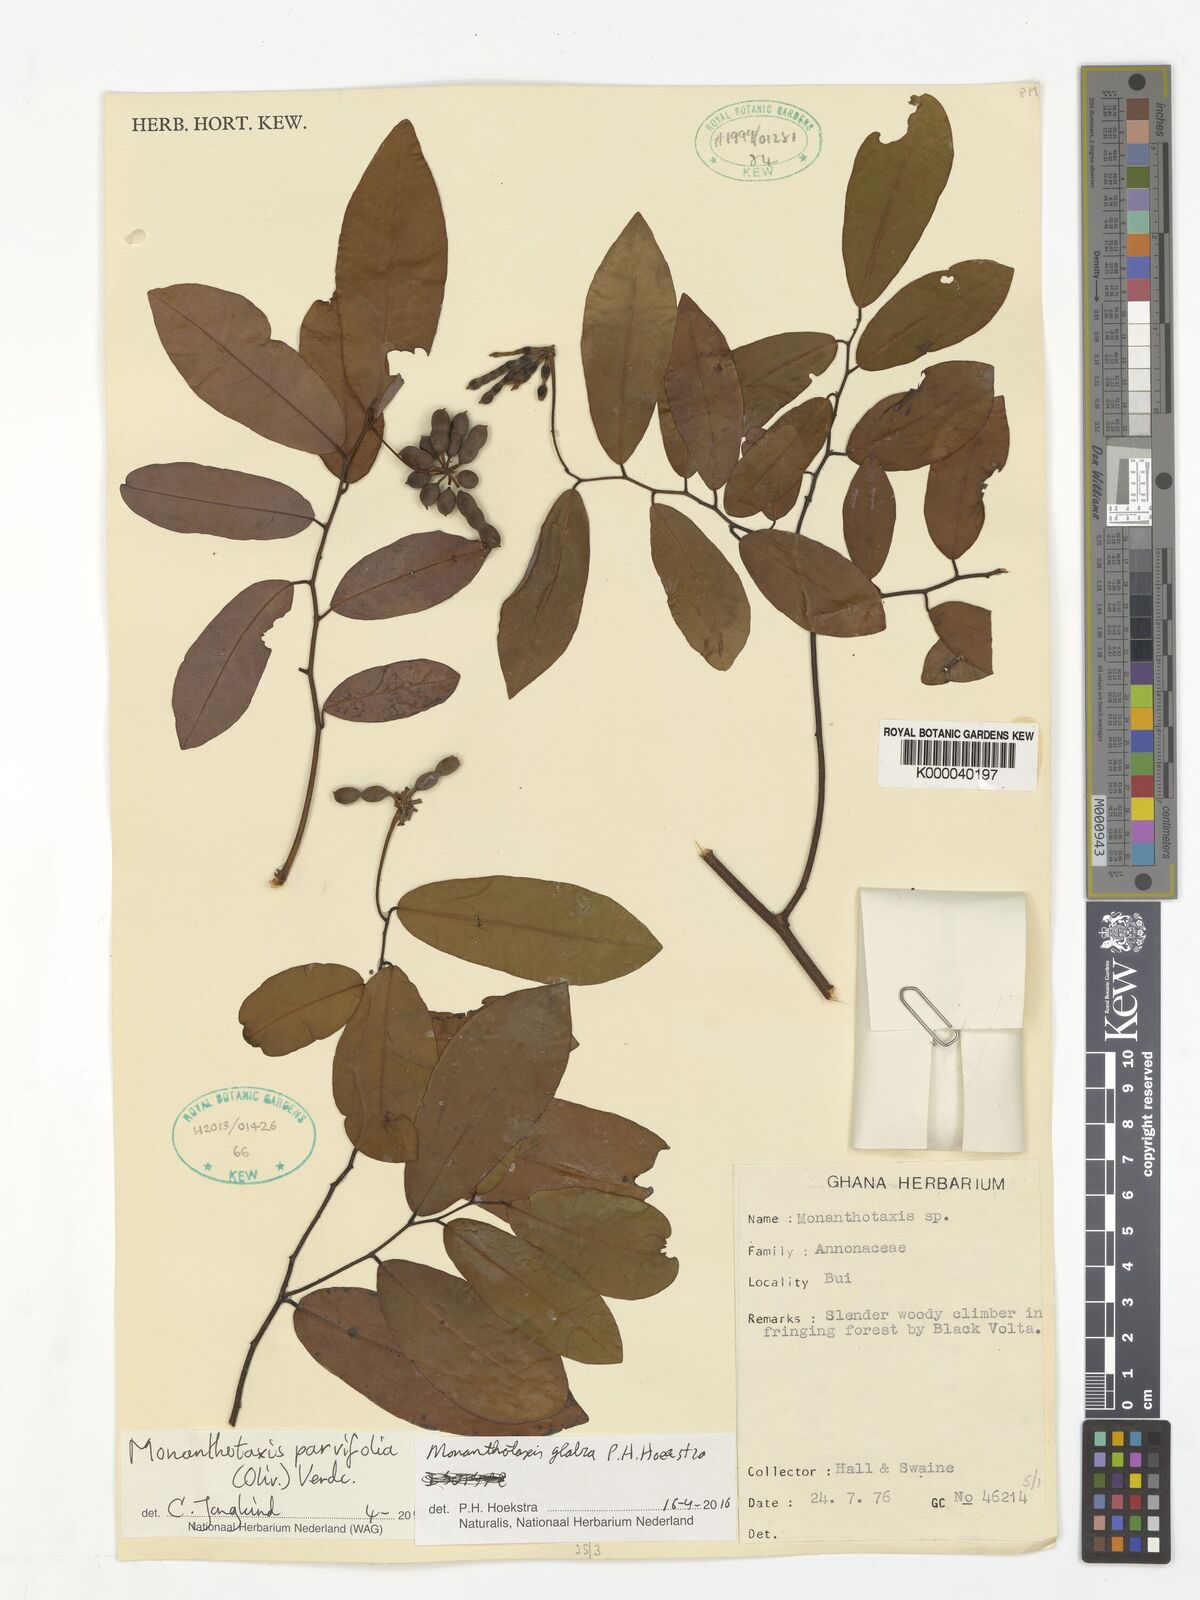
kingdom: Plantae
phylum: Tracheophyta
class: Magnoliopsida
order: Magnoliales
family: Annonaceae
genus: Monanthotaxis
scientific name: Monanthotaxis
